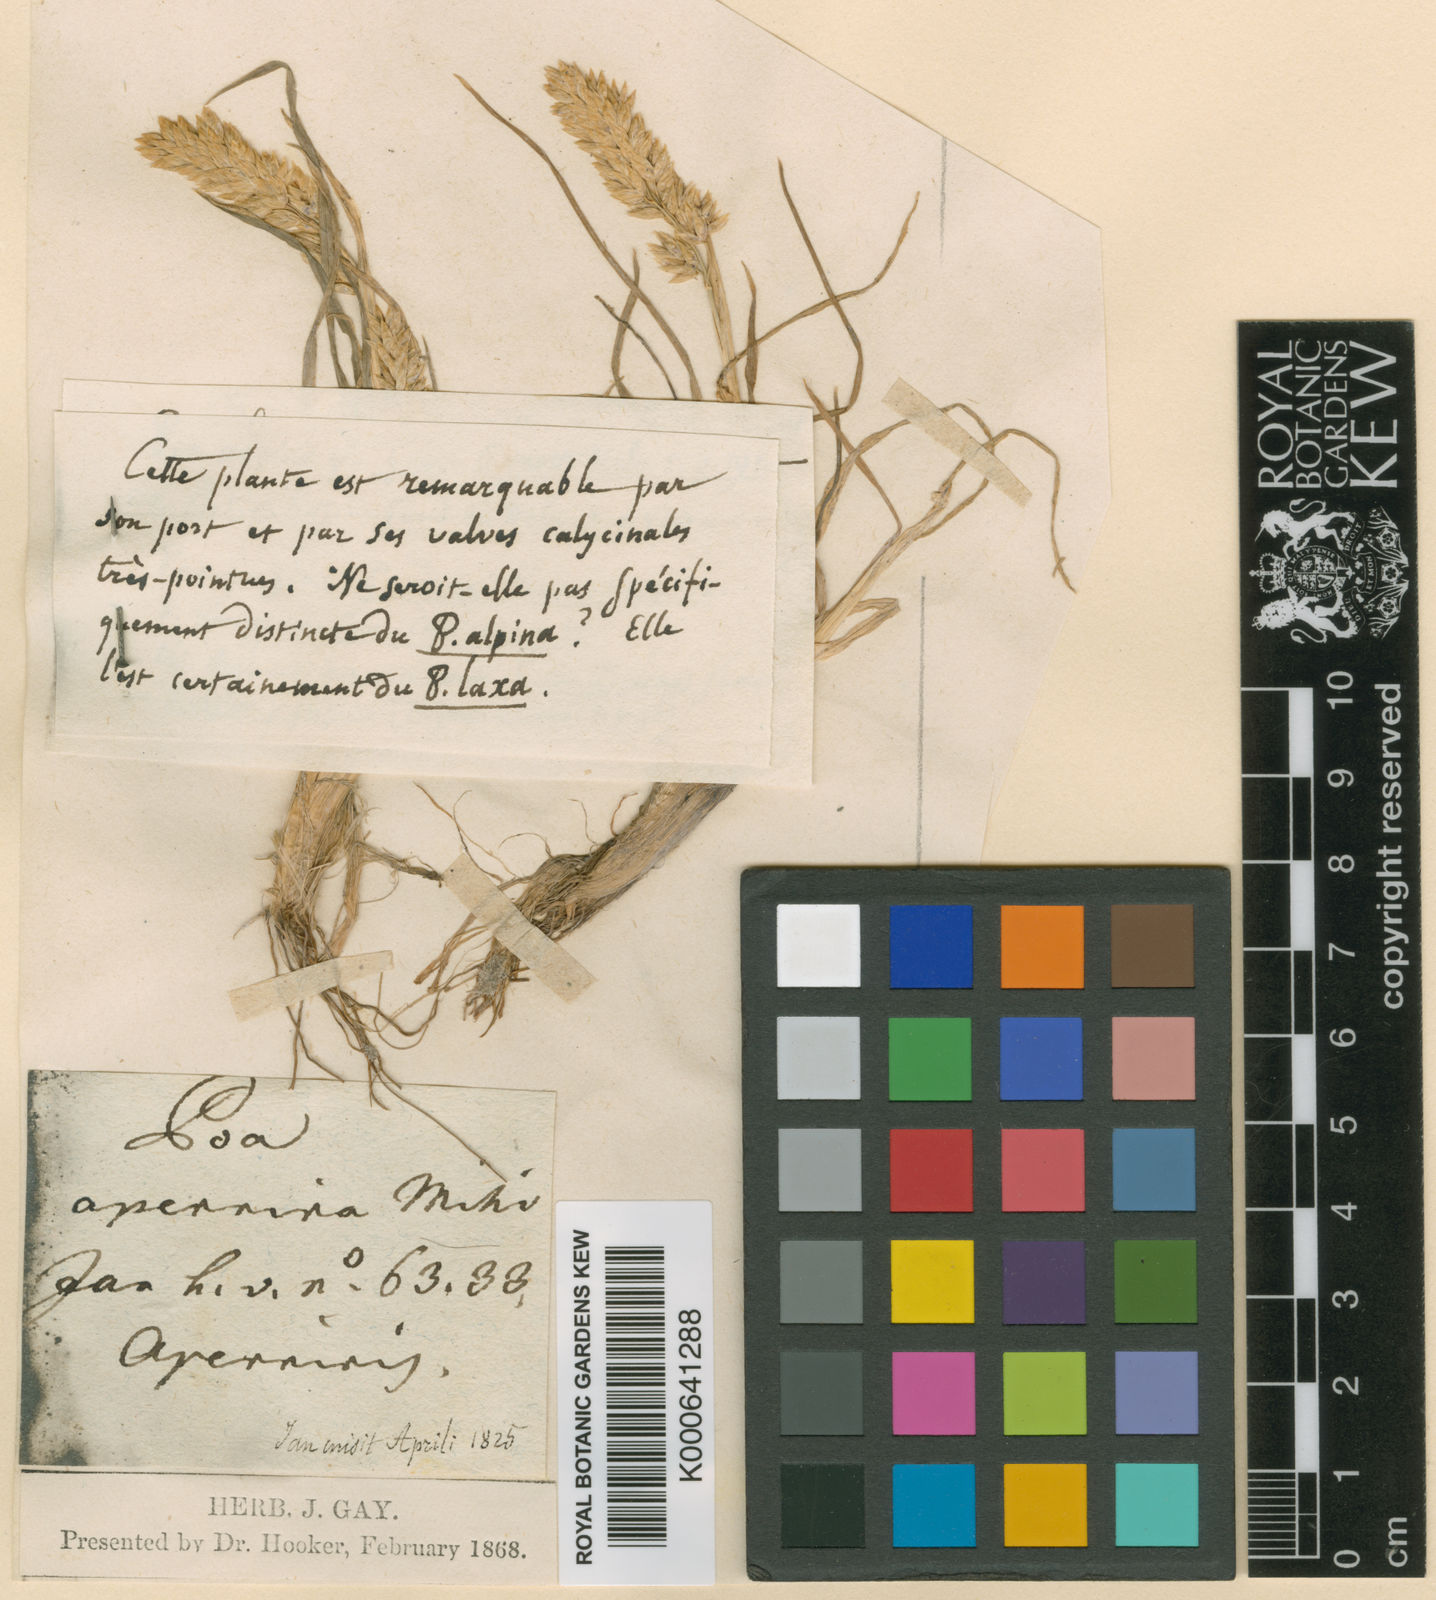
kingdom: Plantae
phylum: Tracheophyta
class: Liliopsida
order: Poales
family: Poaceae
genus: Poa
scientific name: Poa alpina
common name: Alpine bluegrass
